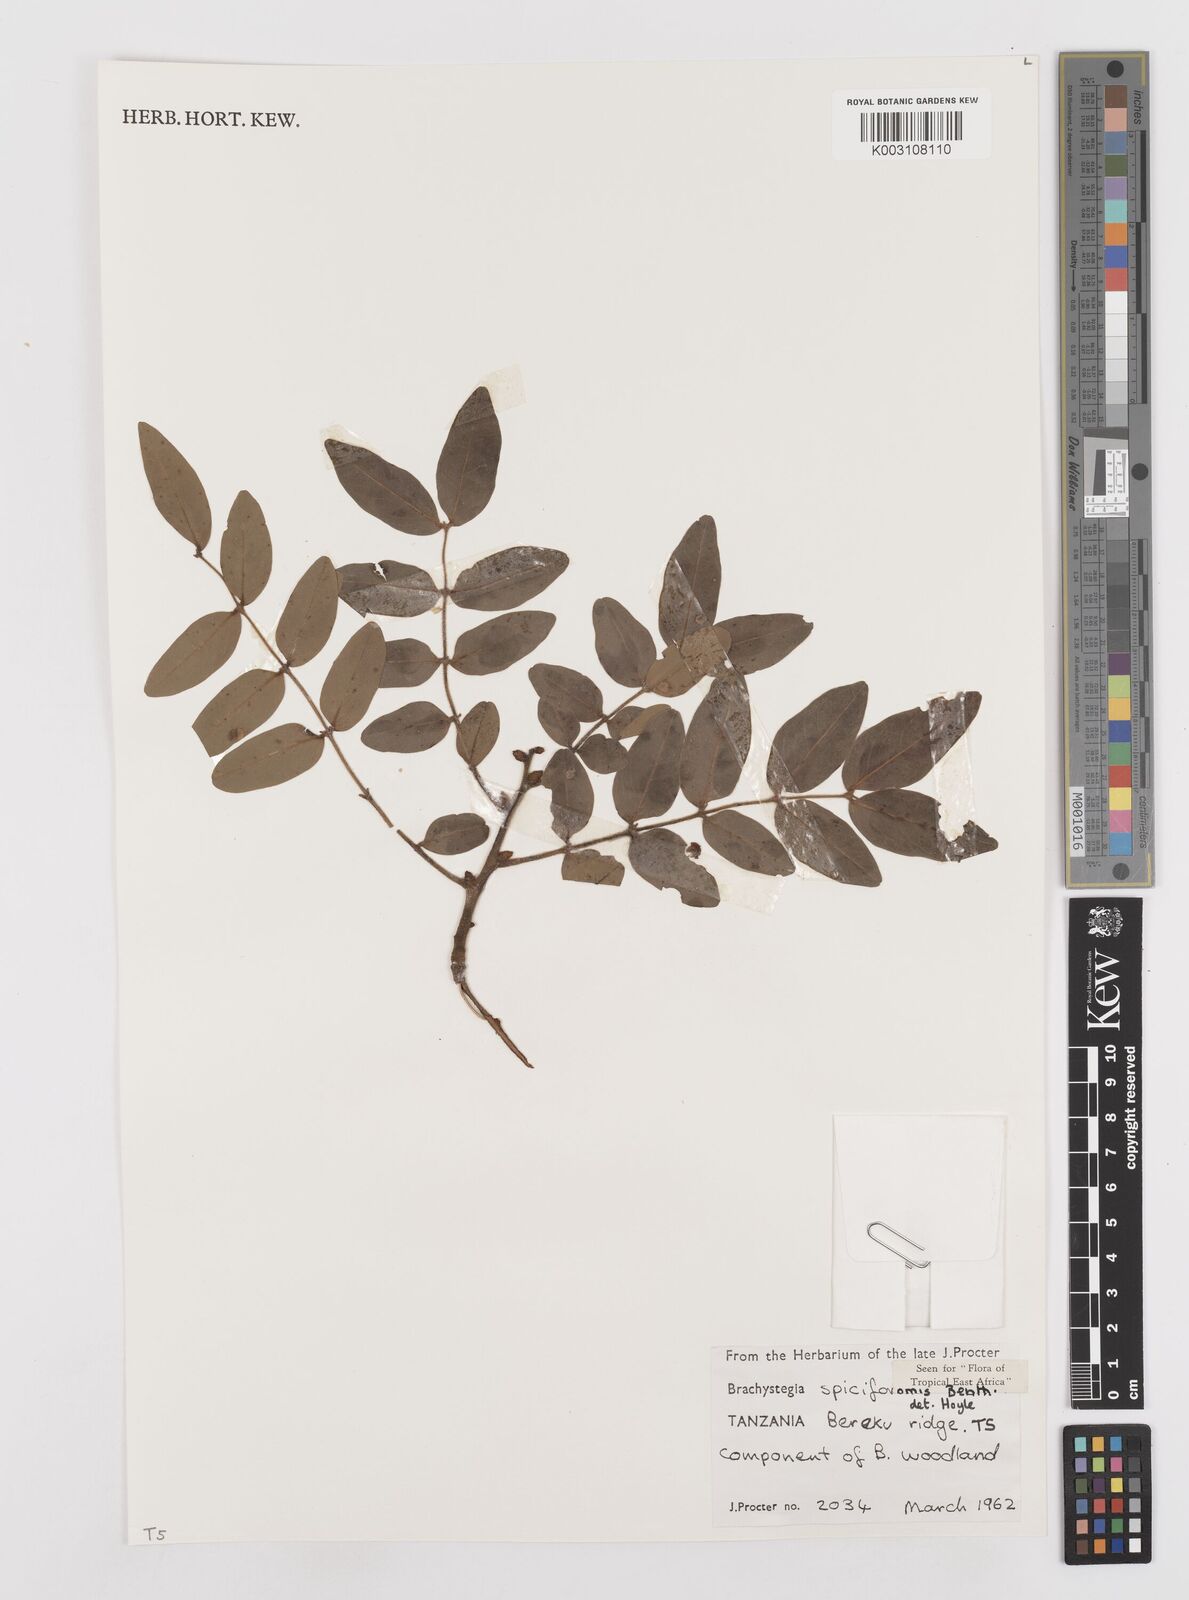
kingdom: Plantae
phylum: Tracheophyta
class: Magnoliopsida
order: Fabales
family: Fabaceae
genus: Brachystegia
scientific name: Brachystegia spiciformis
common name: Zebrawood
